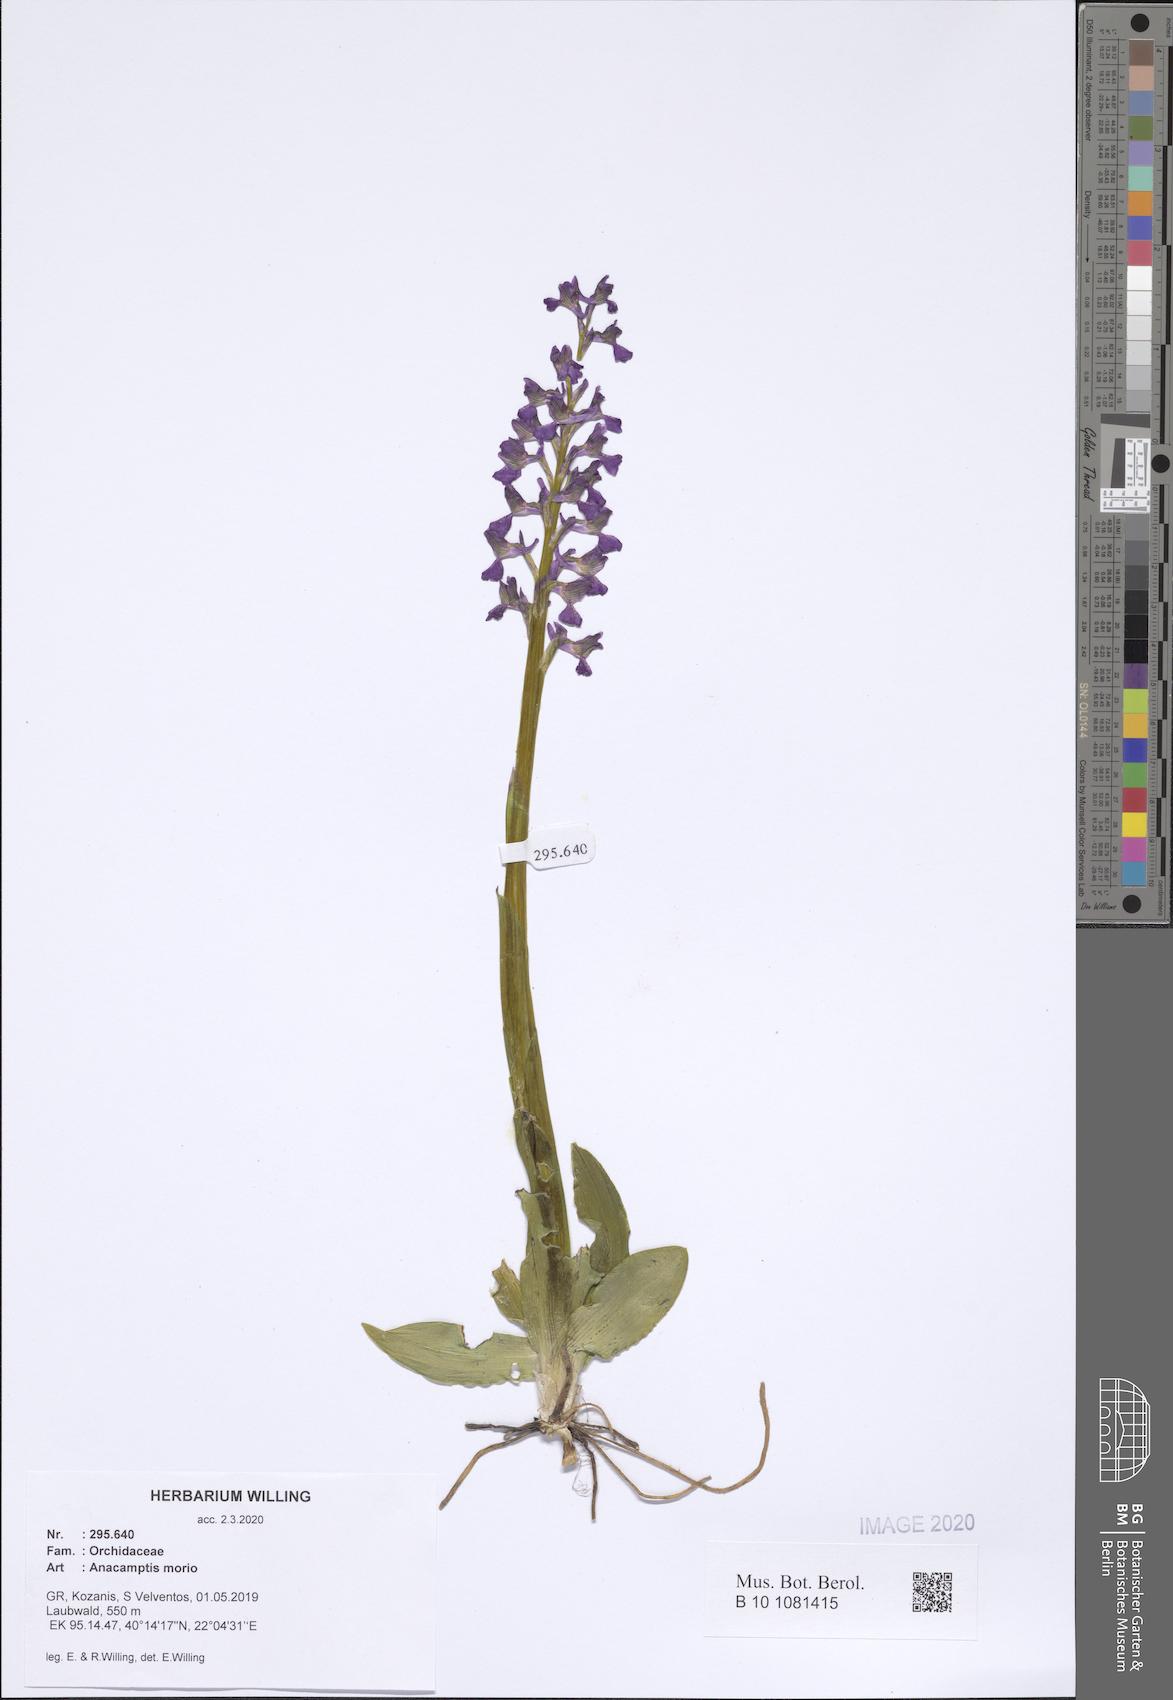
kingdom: Plantae
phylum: Tracheophyta
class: Liliopsida
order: Asparagales
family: Orchidaceae
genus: Anacamptis
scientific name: Anacamptis morio
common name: Green-winged orchid
